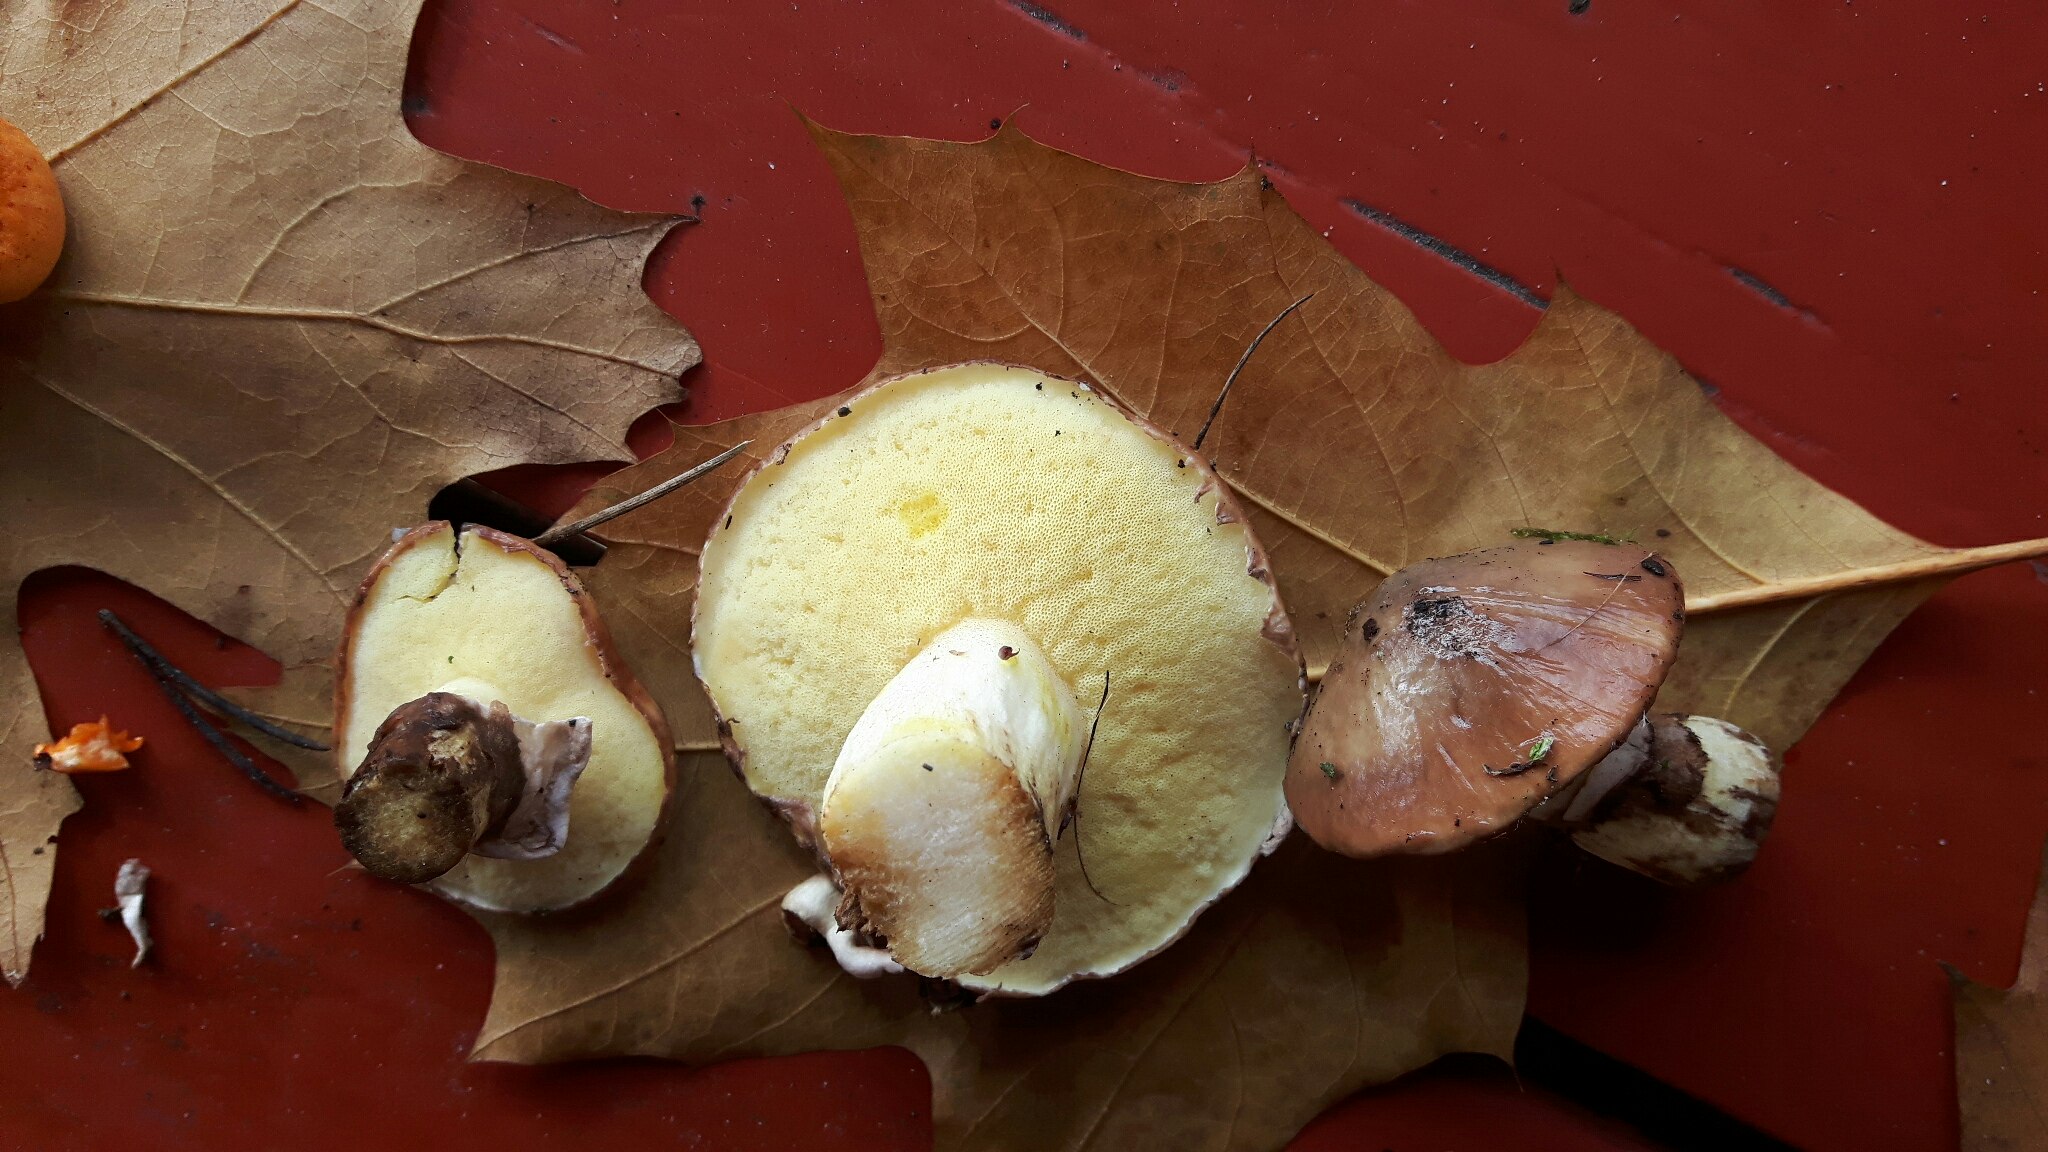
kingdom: Fungi
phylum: Basidiomycota
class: Agaricomycetes
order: Boletales
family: Suillaceae
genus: Suillus
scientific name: Suillus luteus
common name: brungul slimrørhat
